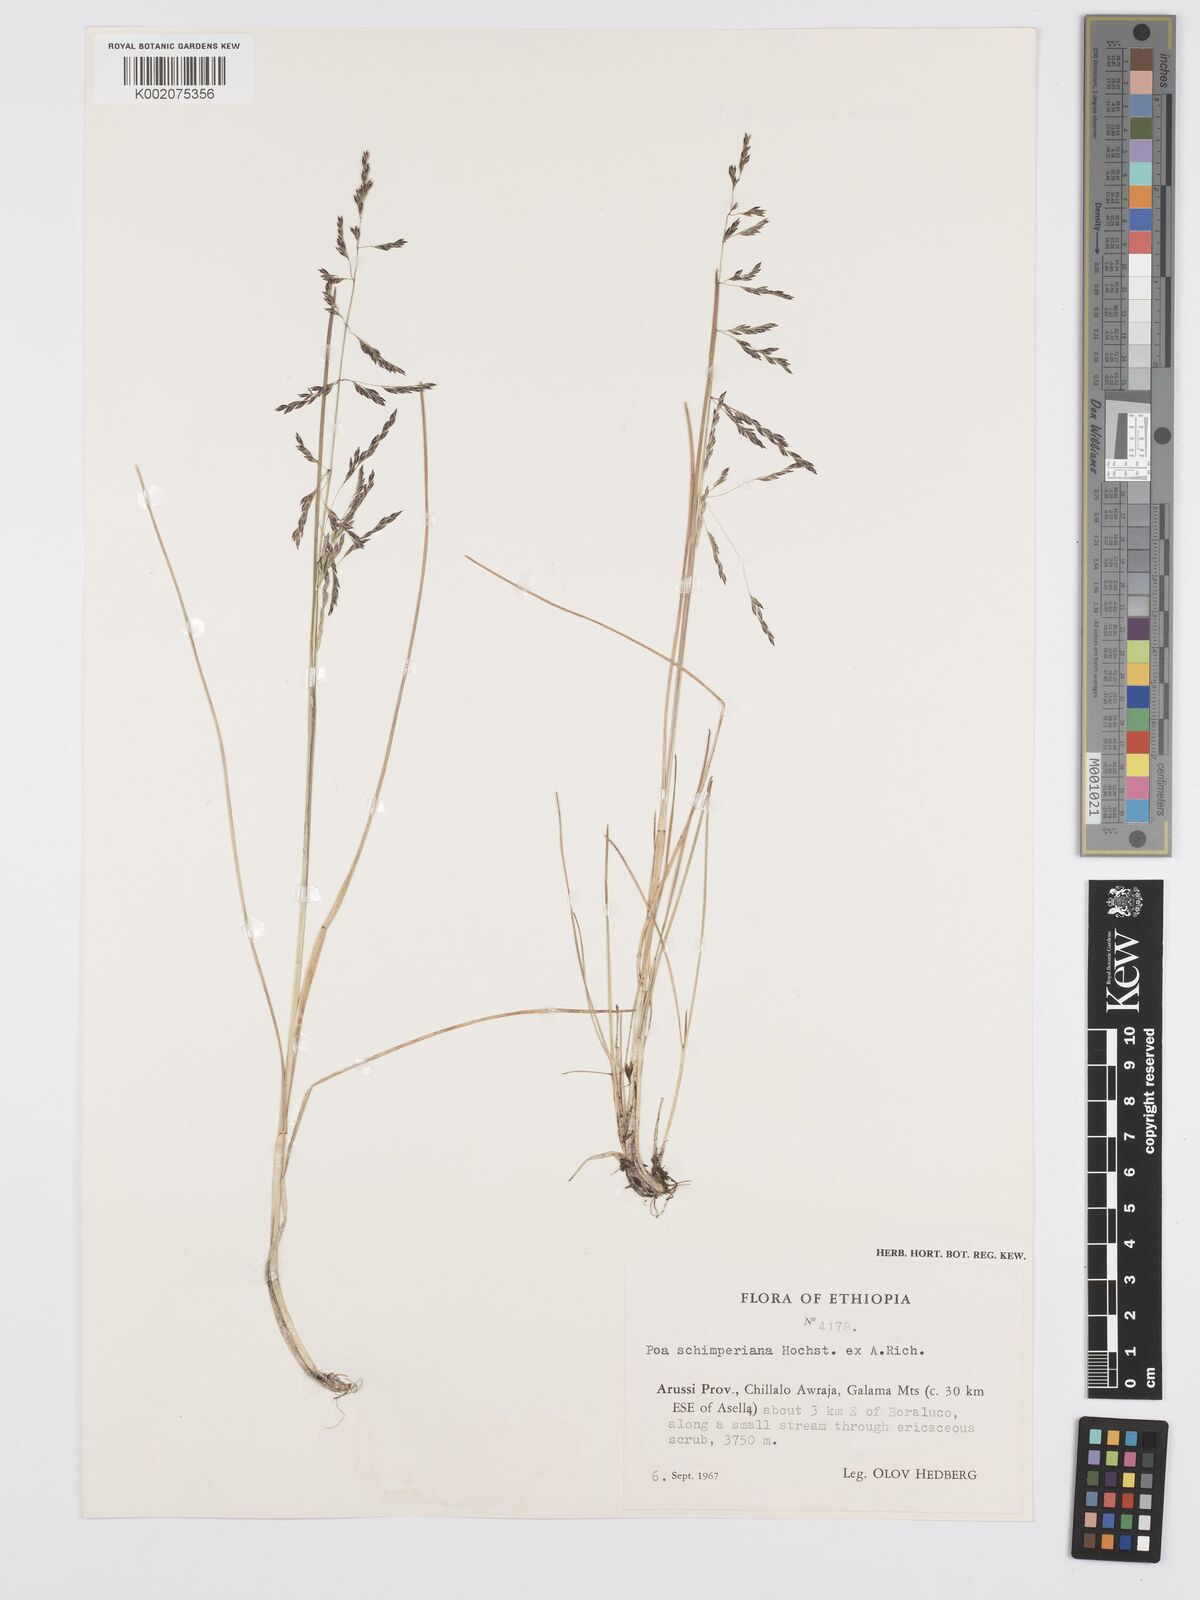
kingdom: Plantae
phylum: Tracheophyta
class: Liliopsida
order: Poales
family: Poaceae
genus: Poa
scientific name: Poa schimperiana
